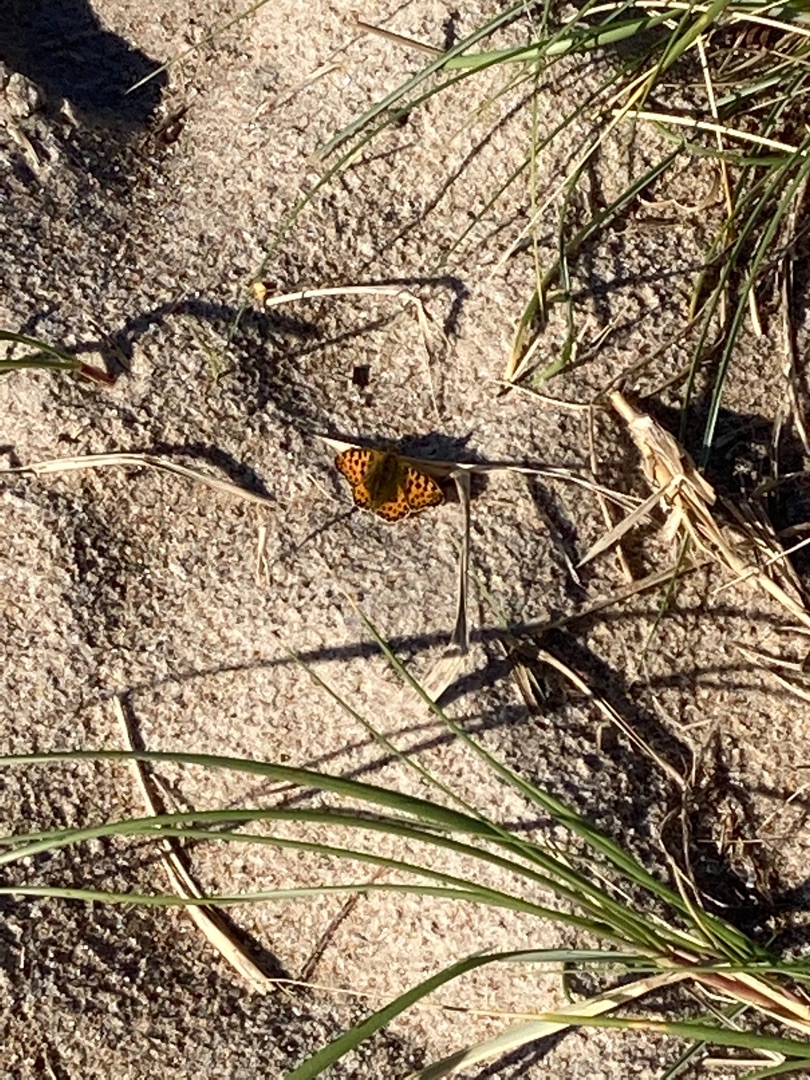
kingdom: Animalia
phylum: Arthropoda
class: Insecta
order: Lepidoptera
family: Nymphalidae
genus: Issoria
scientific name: Issoria lathonia
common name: Storplettet perlemorsommerfugl
